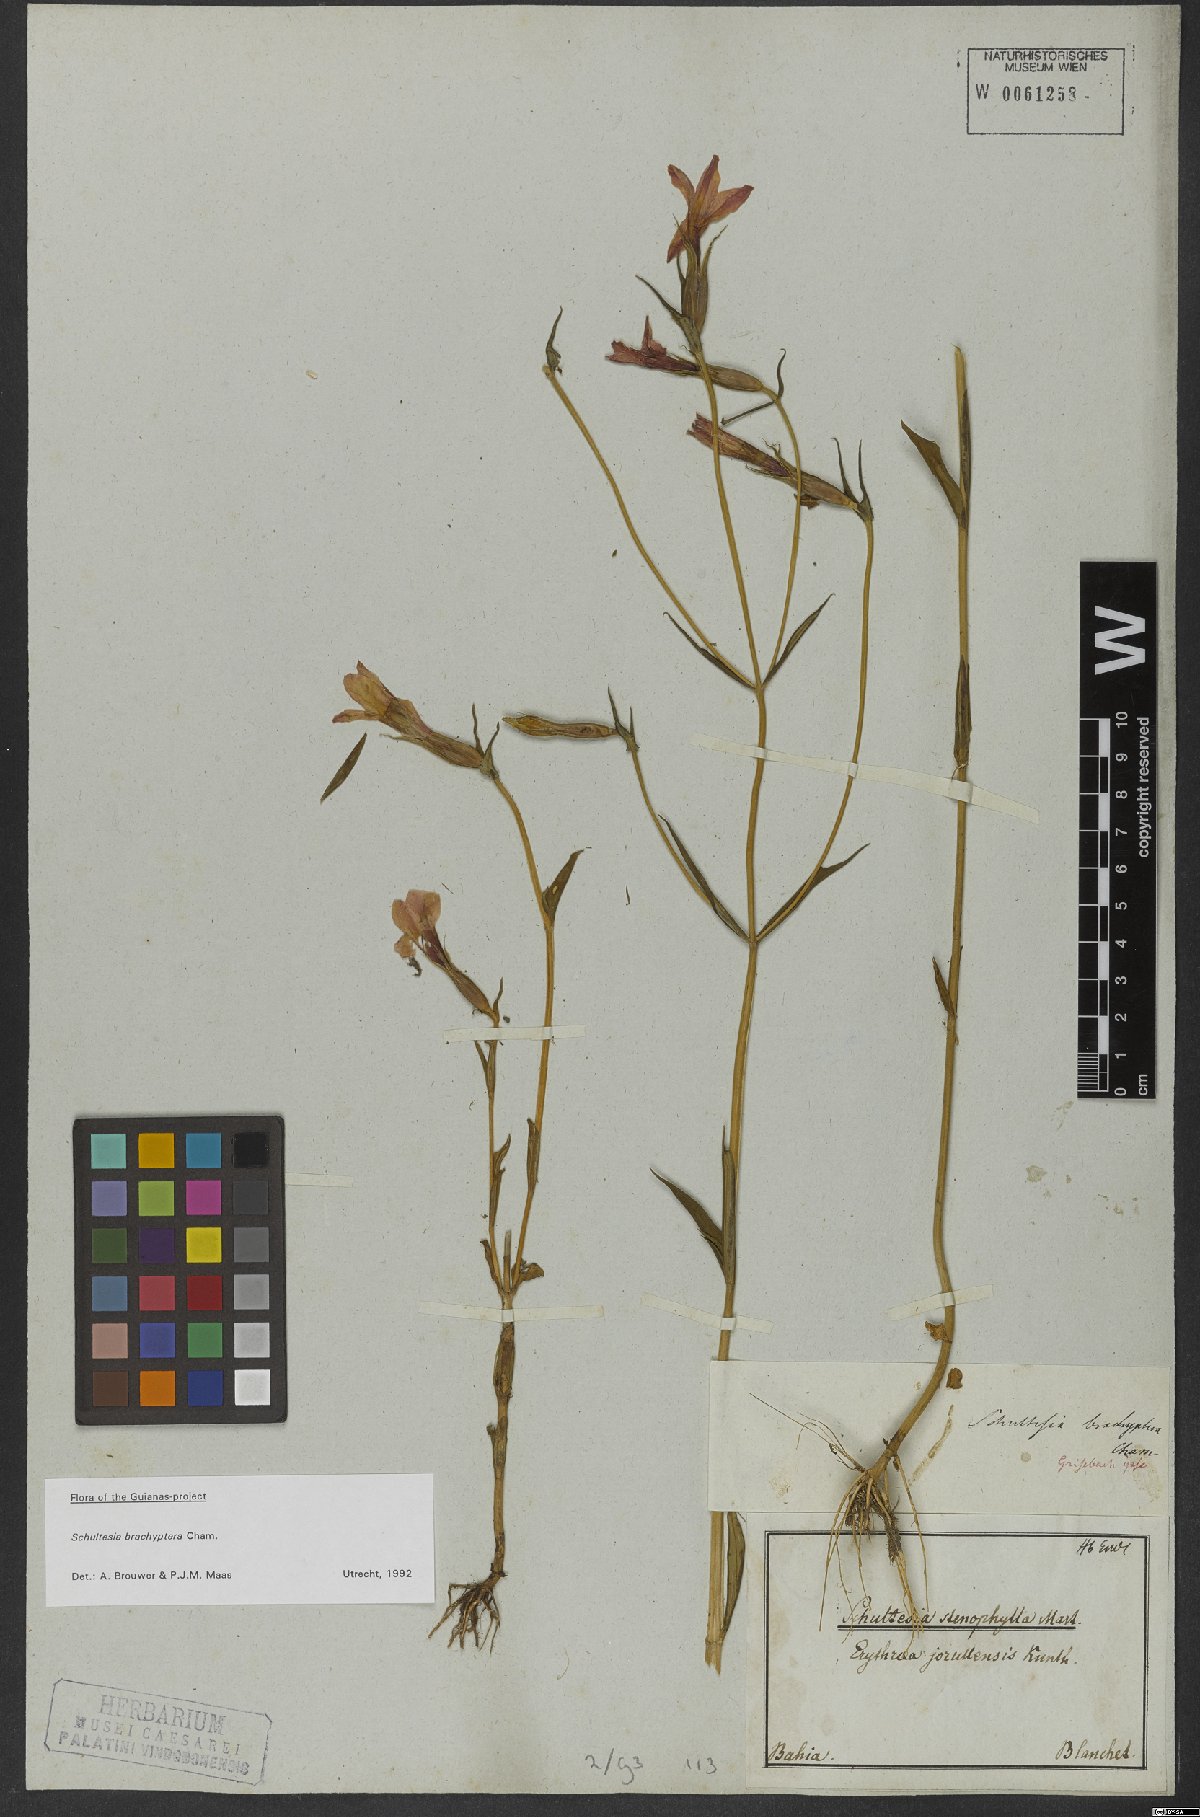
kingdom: Plantae
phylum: Tracheophyta
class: Magnoliopsida
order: Gentianales
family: Gentianaceae
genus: Schultesia
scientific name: Schultesia brachyptera
